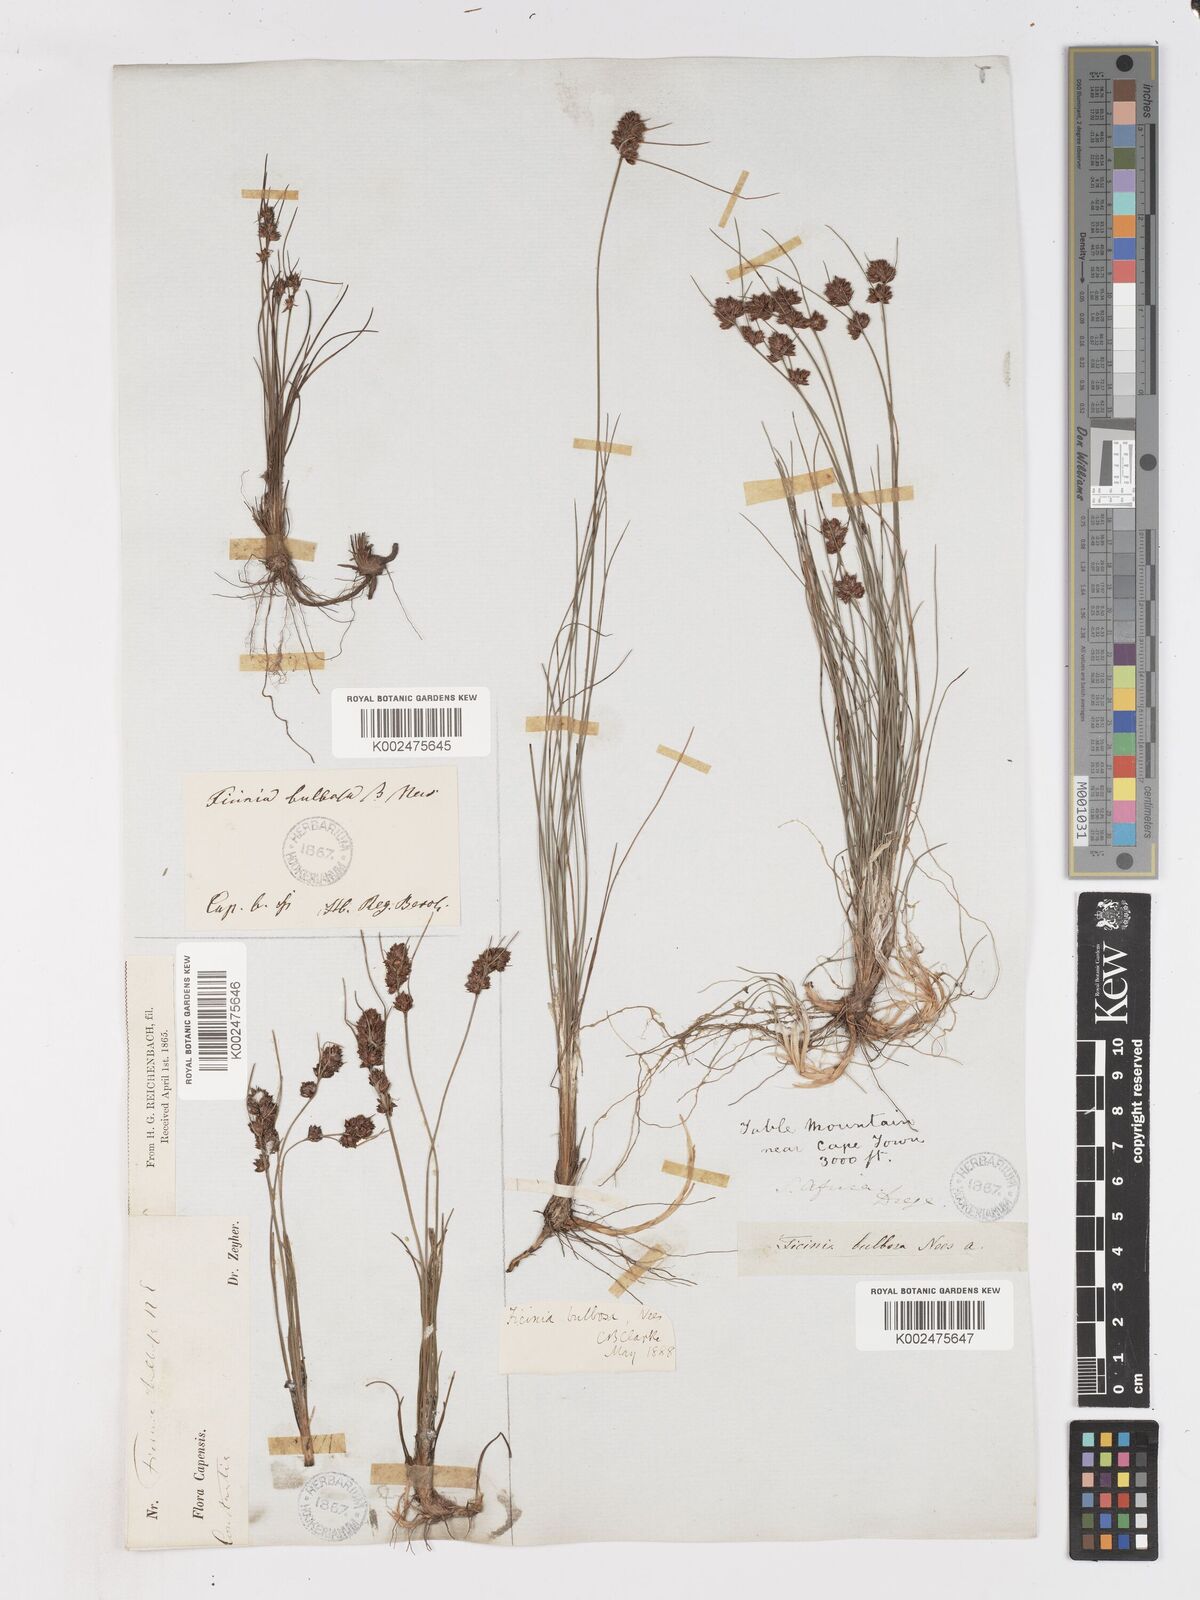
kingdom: Plantae
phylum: Tracheophyta
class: Liliopsida
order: Poales
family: Cyperaceae
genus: Ficinia
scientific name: Ficinia bulbosa
